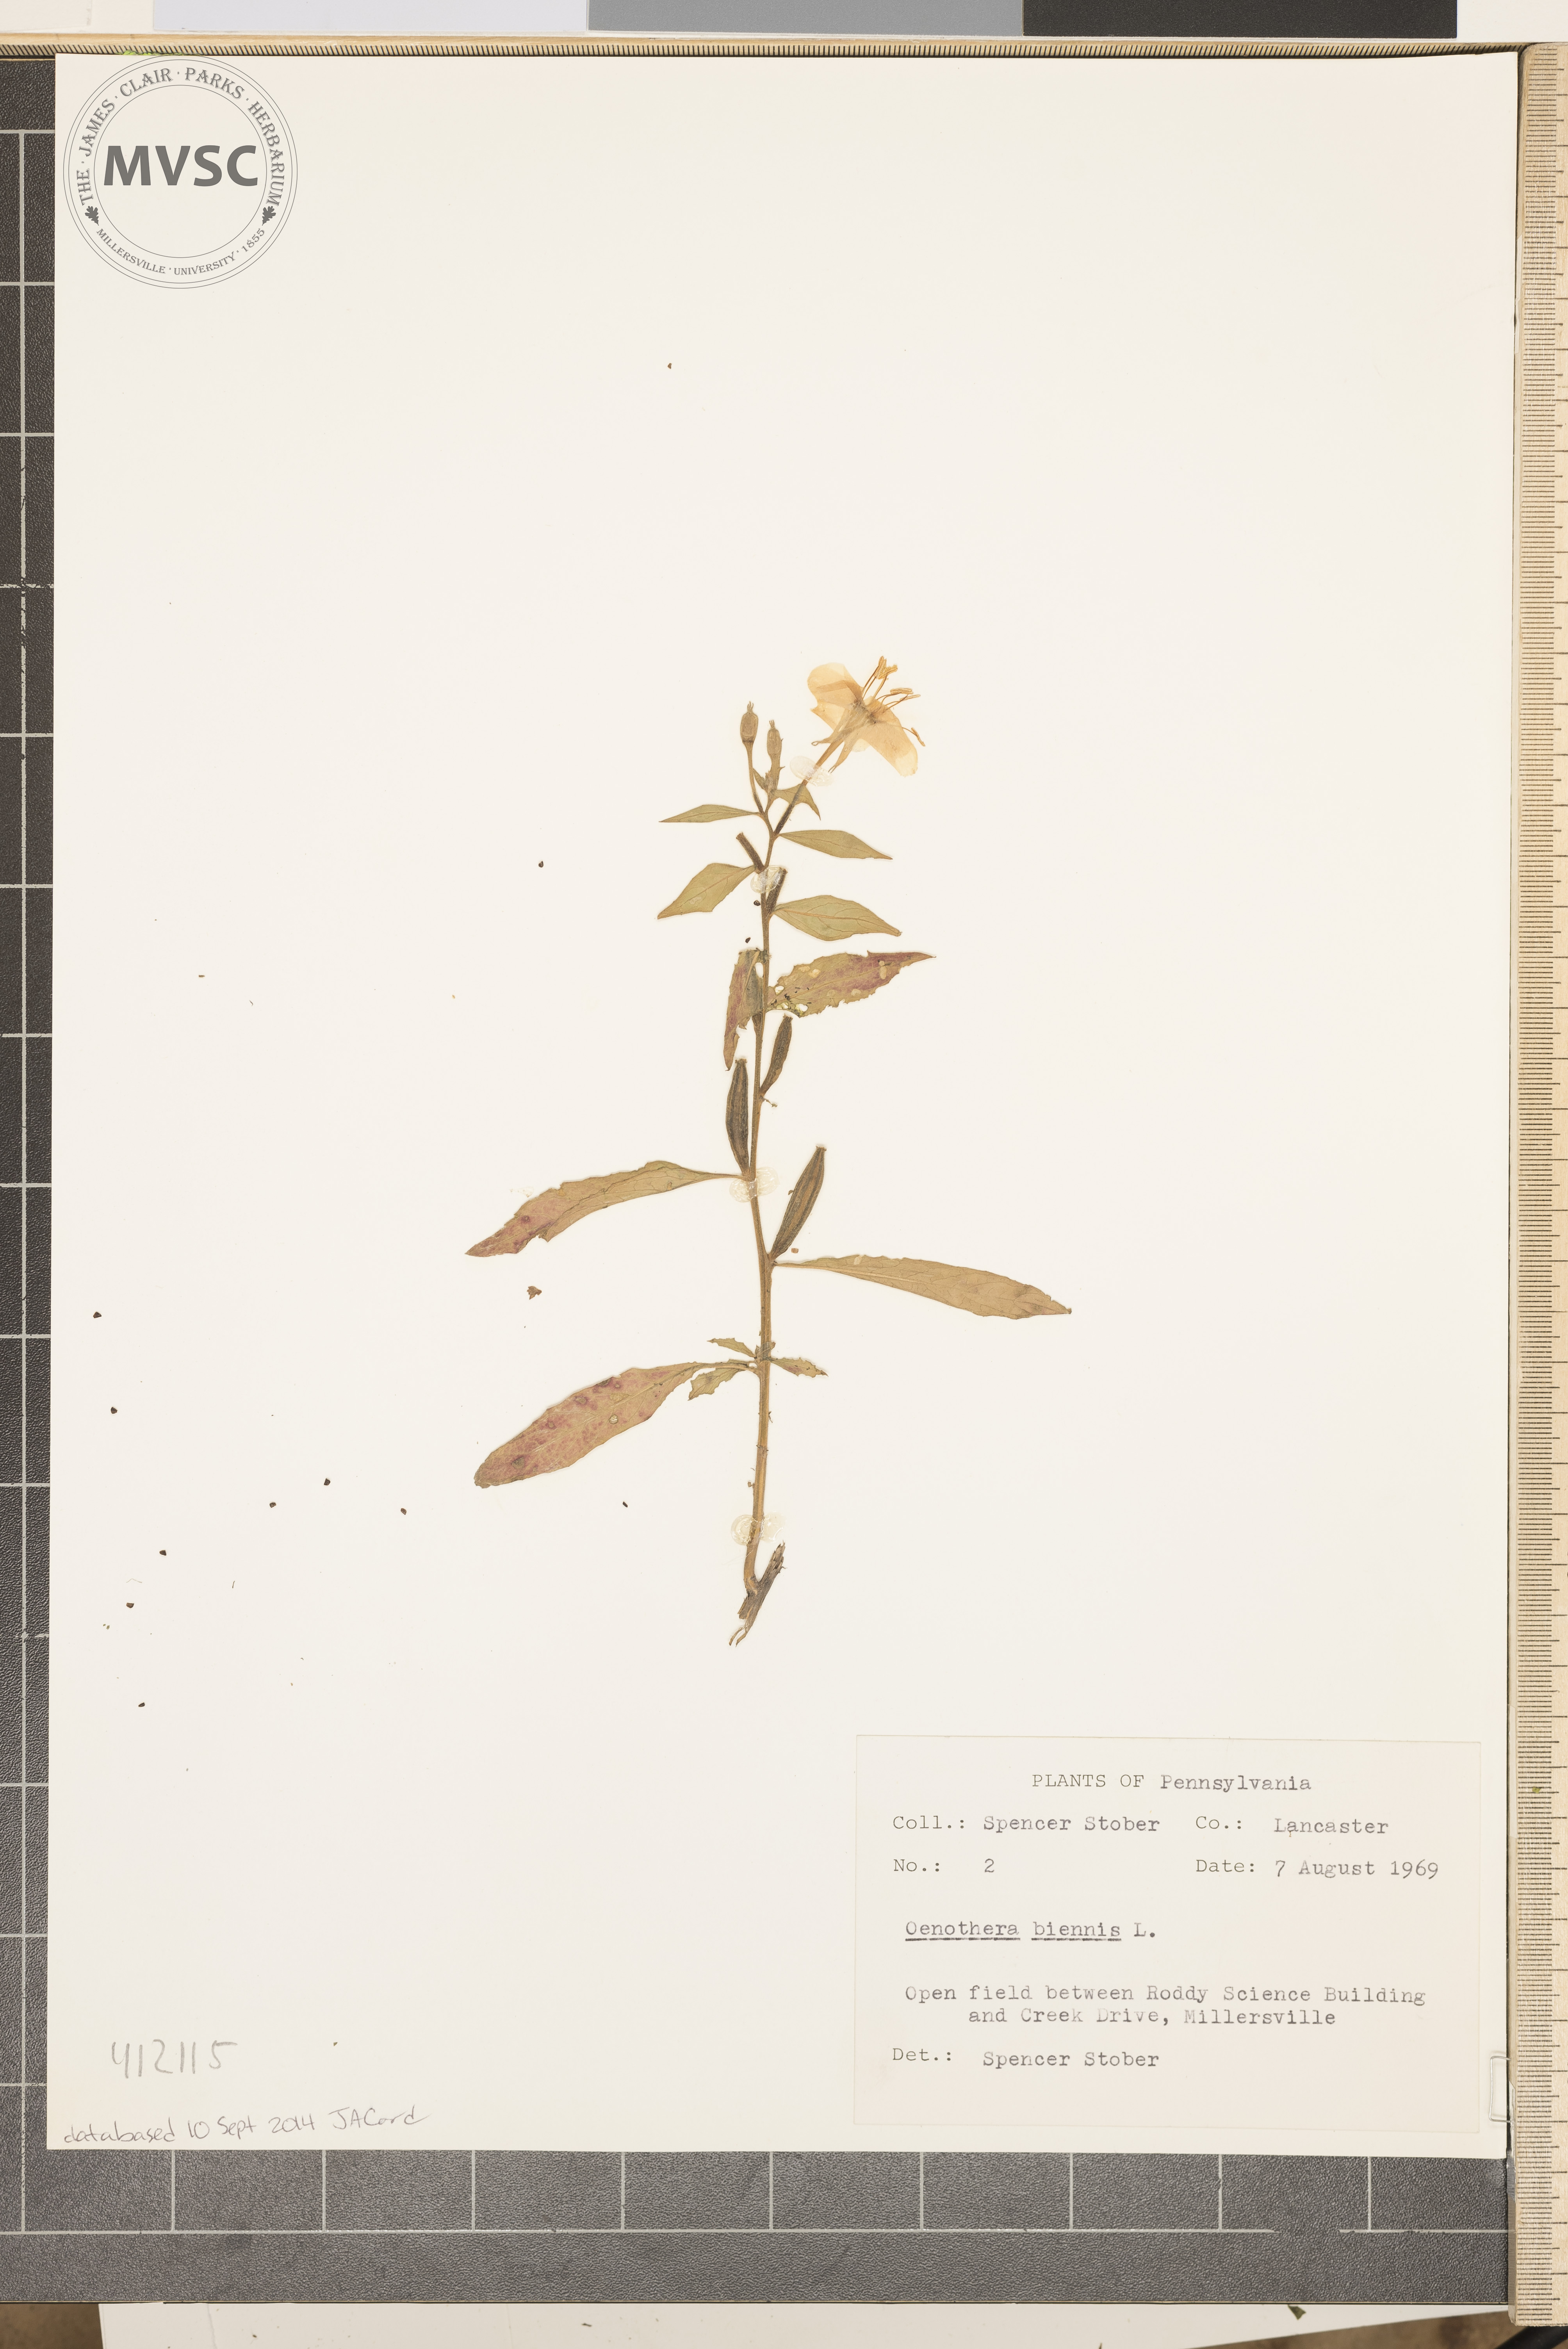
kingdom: Plantae
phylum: Tracheophyta
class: Magnoliopsida
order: Myrtales
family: Onagraceae
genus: Oenothera
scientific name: Oenothera biennis
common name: Common evening-primrose
